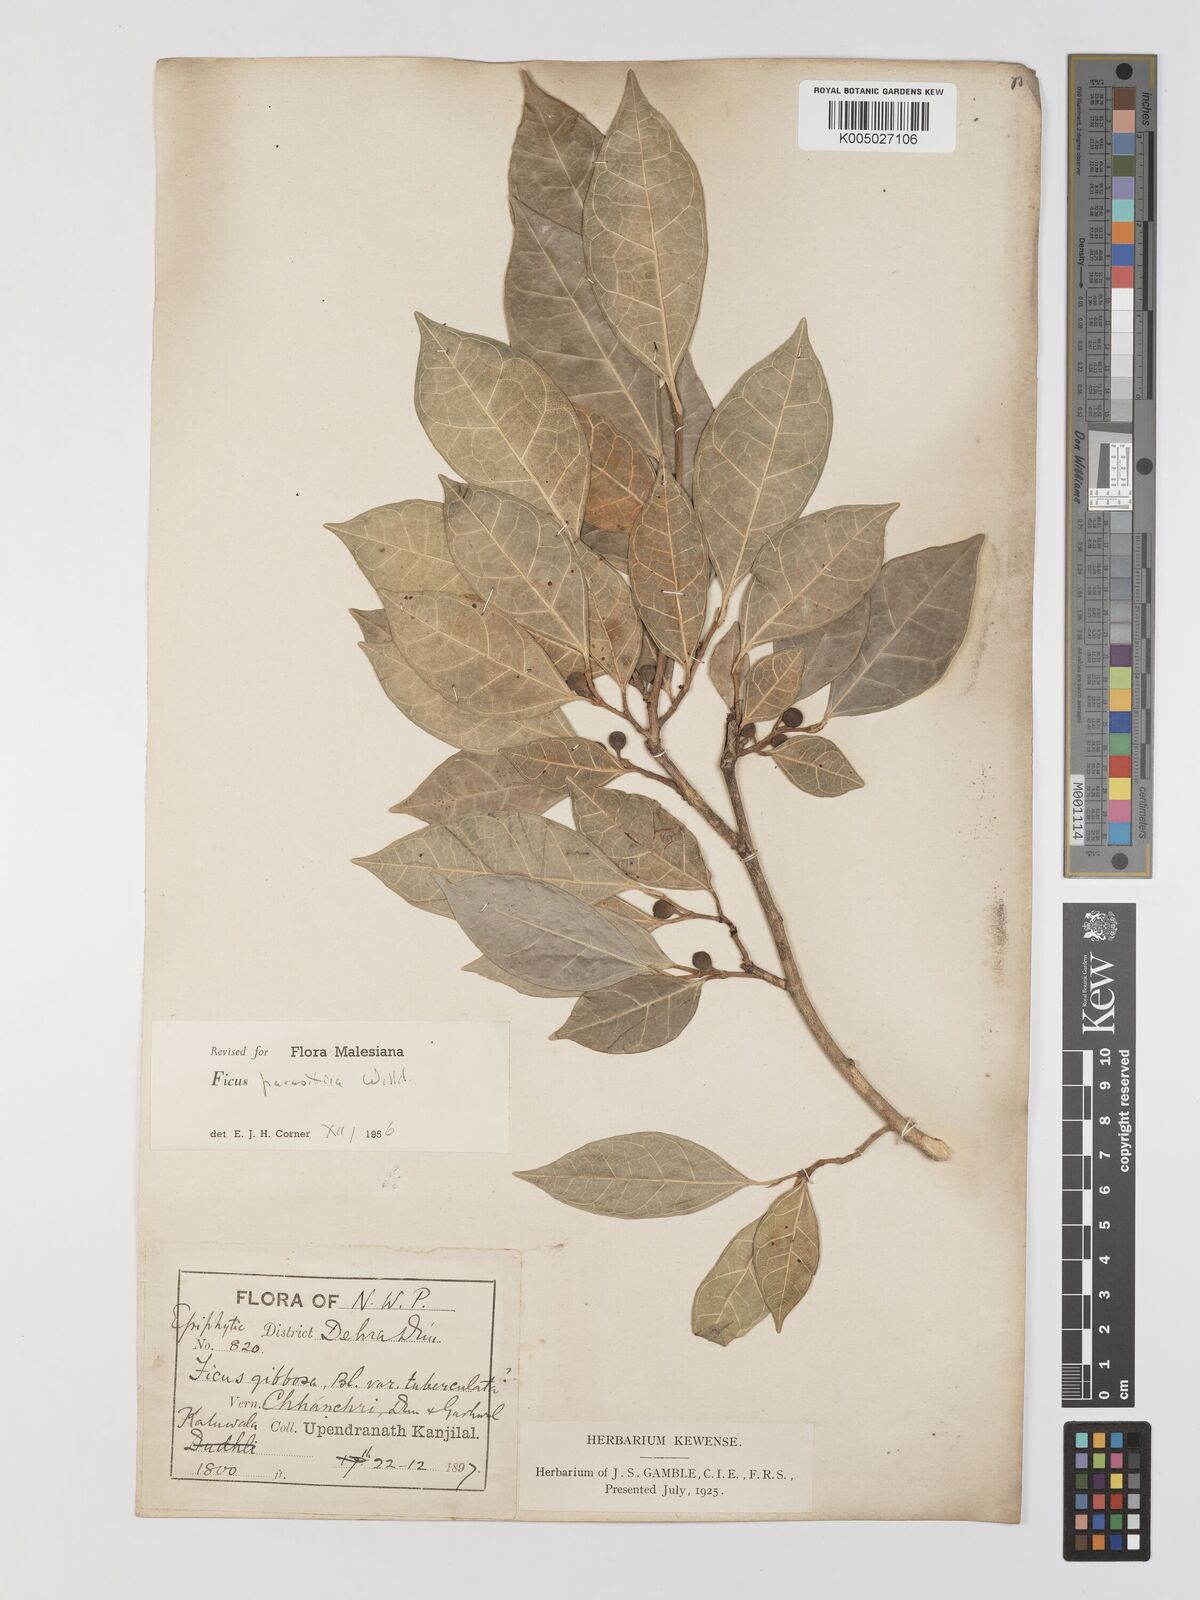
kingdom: Plantae
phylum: Tracheophyta
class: Magnoliopsida
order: Rosales
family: Moraceae
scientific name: Moraceae
